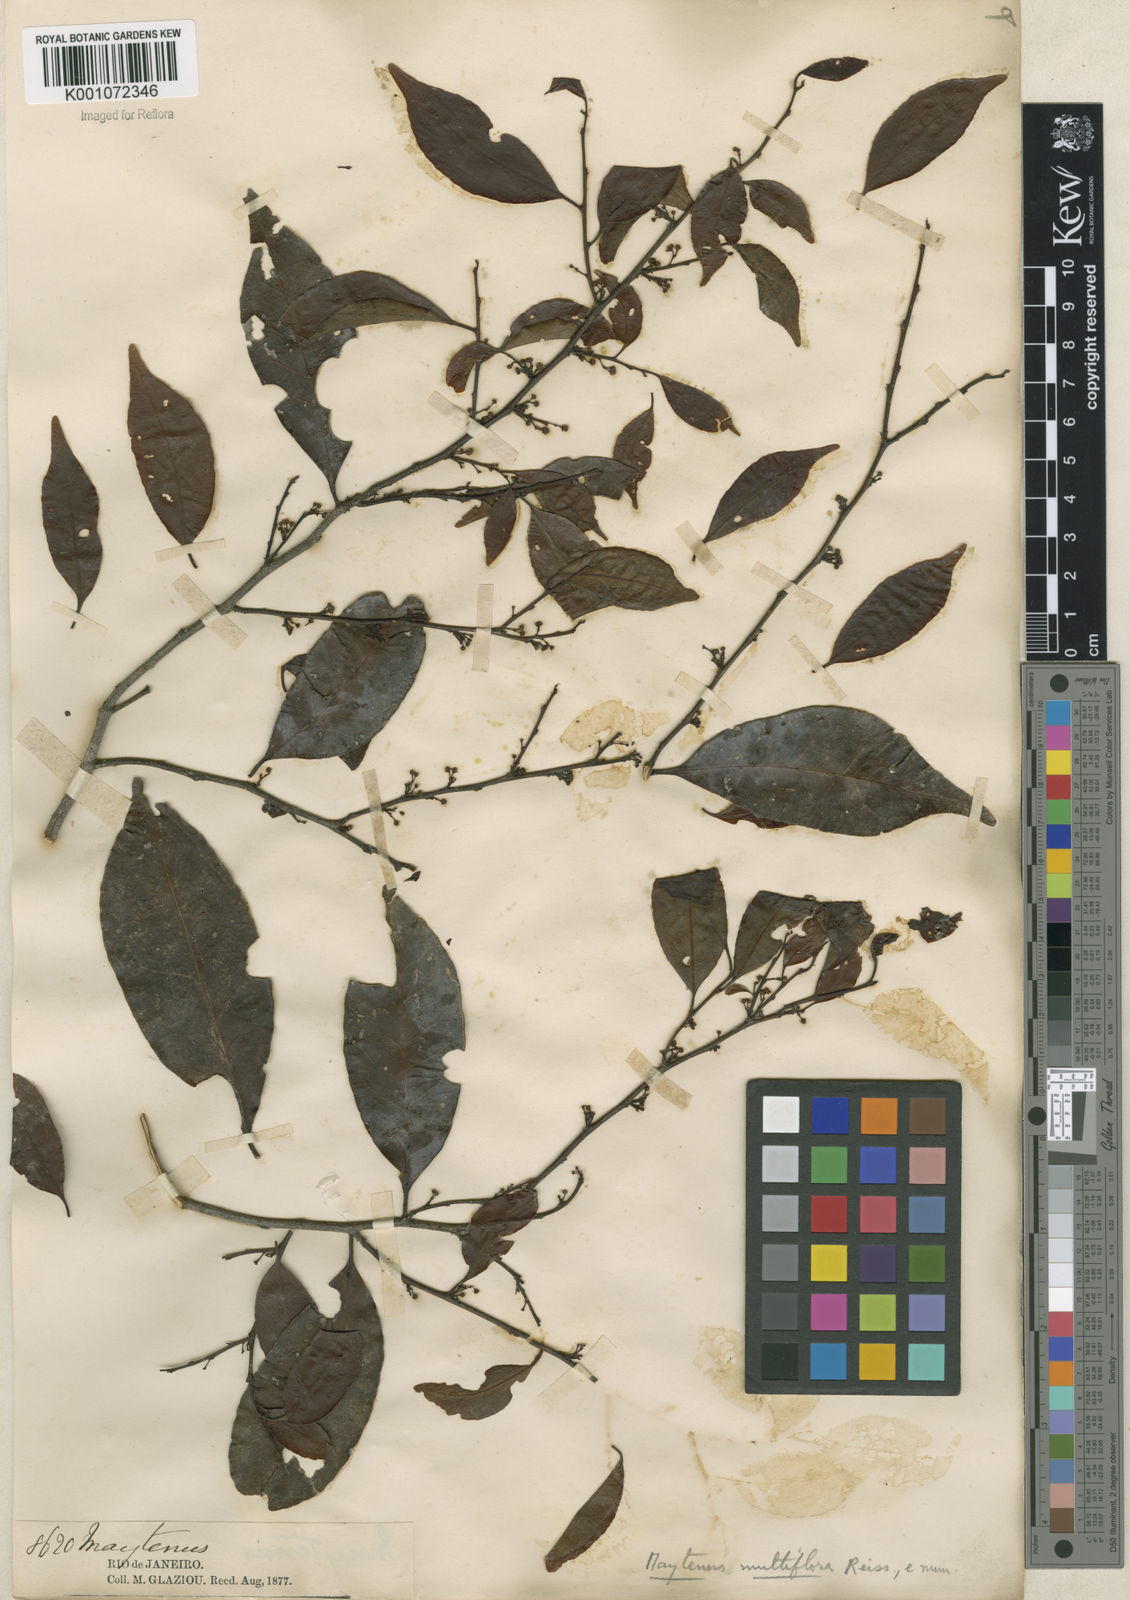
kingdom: Plantae
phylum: Tracheophyta
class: Magnoliopsida
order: Celastrales
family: Celastraceae
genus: Monteverdia
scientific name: Monteverdia macrocarpa
